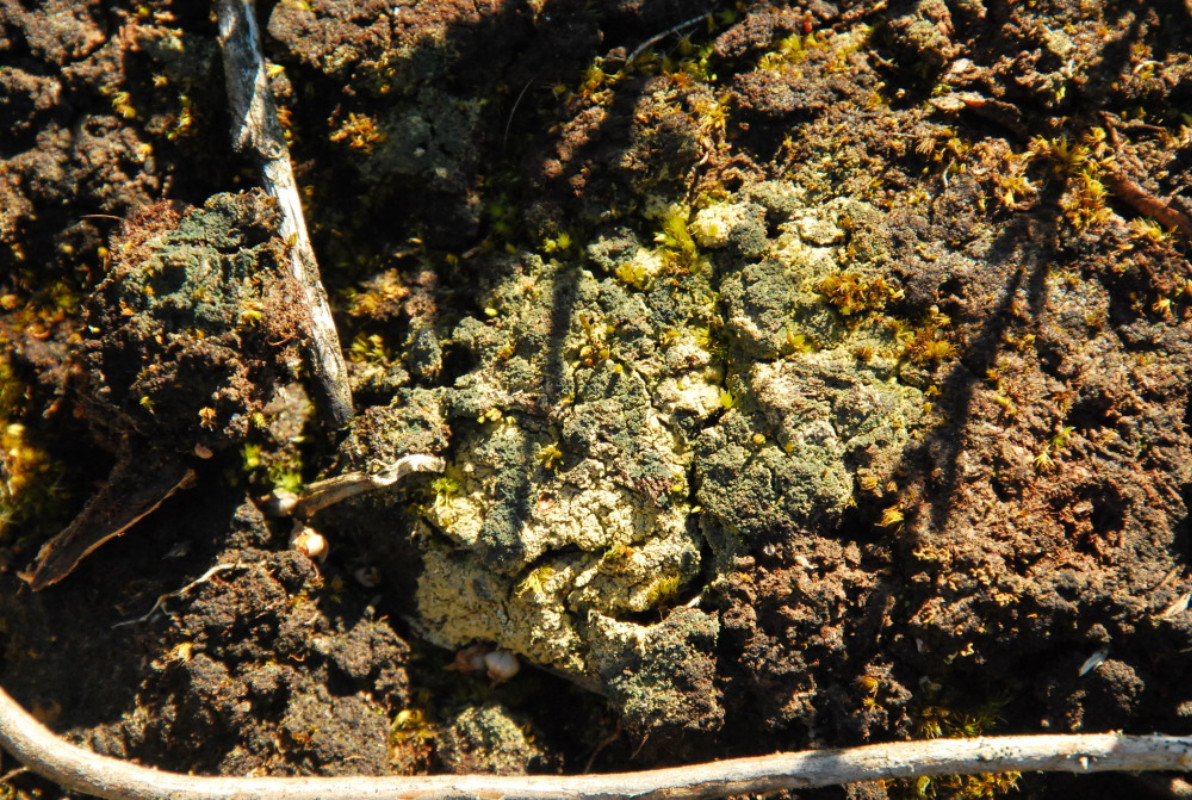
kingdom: Fungi
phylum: Ascomycota
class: Lecanoromycetes
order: Baeomycetales
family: Trapeliaceae
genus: Trapeliopsis
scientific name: Trapeliopsis granulosa
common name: forskelligfarvet skivelav
